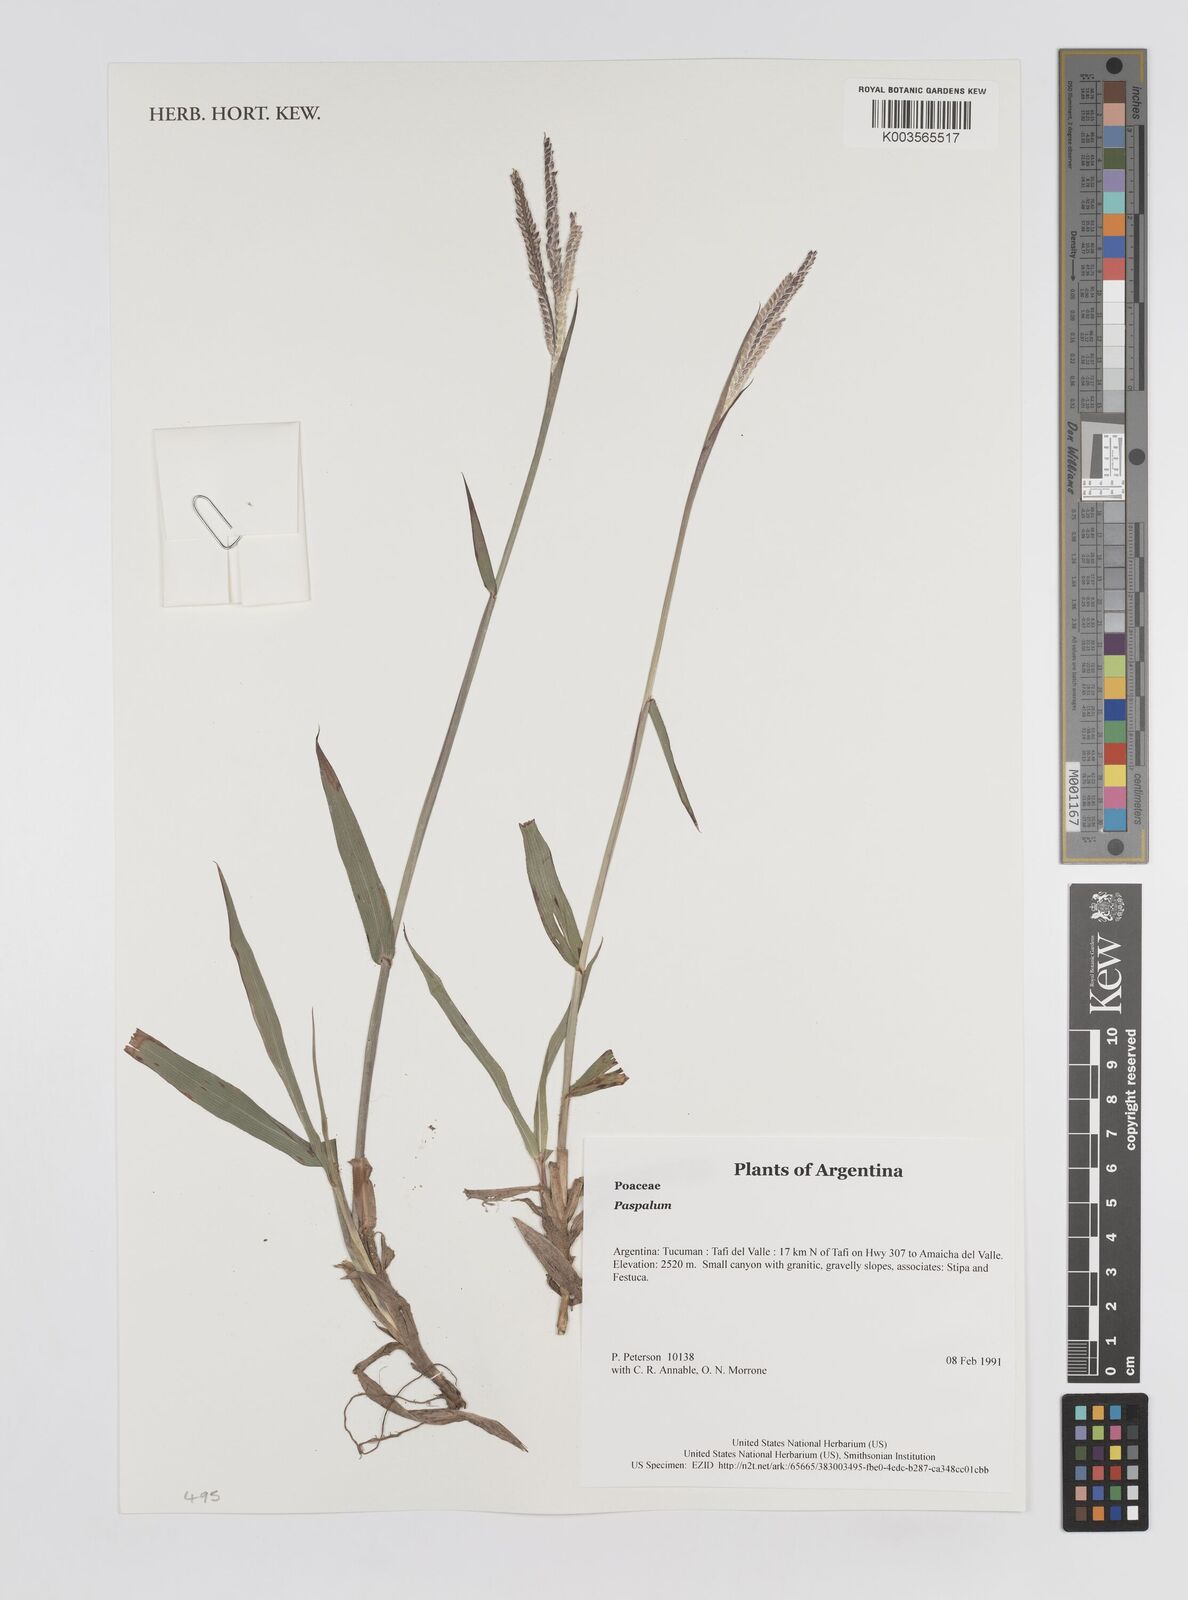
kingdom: Plantae
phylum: Tracheophyta
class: Liliopsida
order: Poales
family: Poaceae
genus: Paspalum
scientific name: Paspalum
